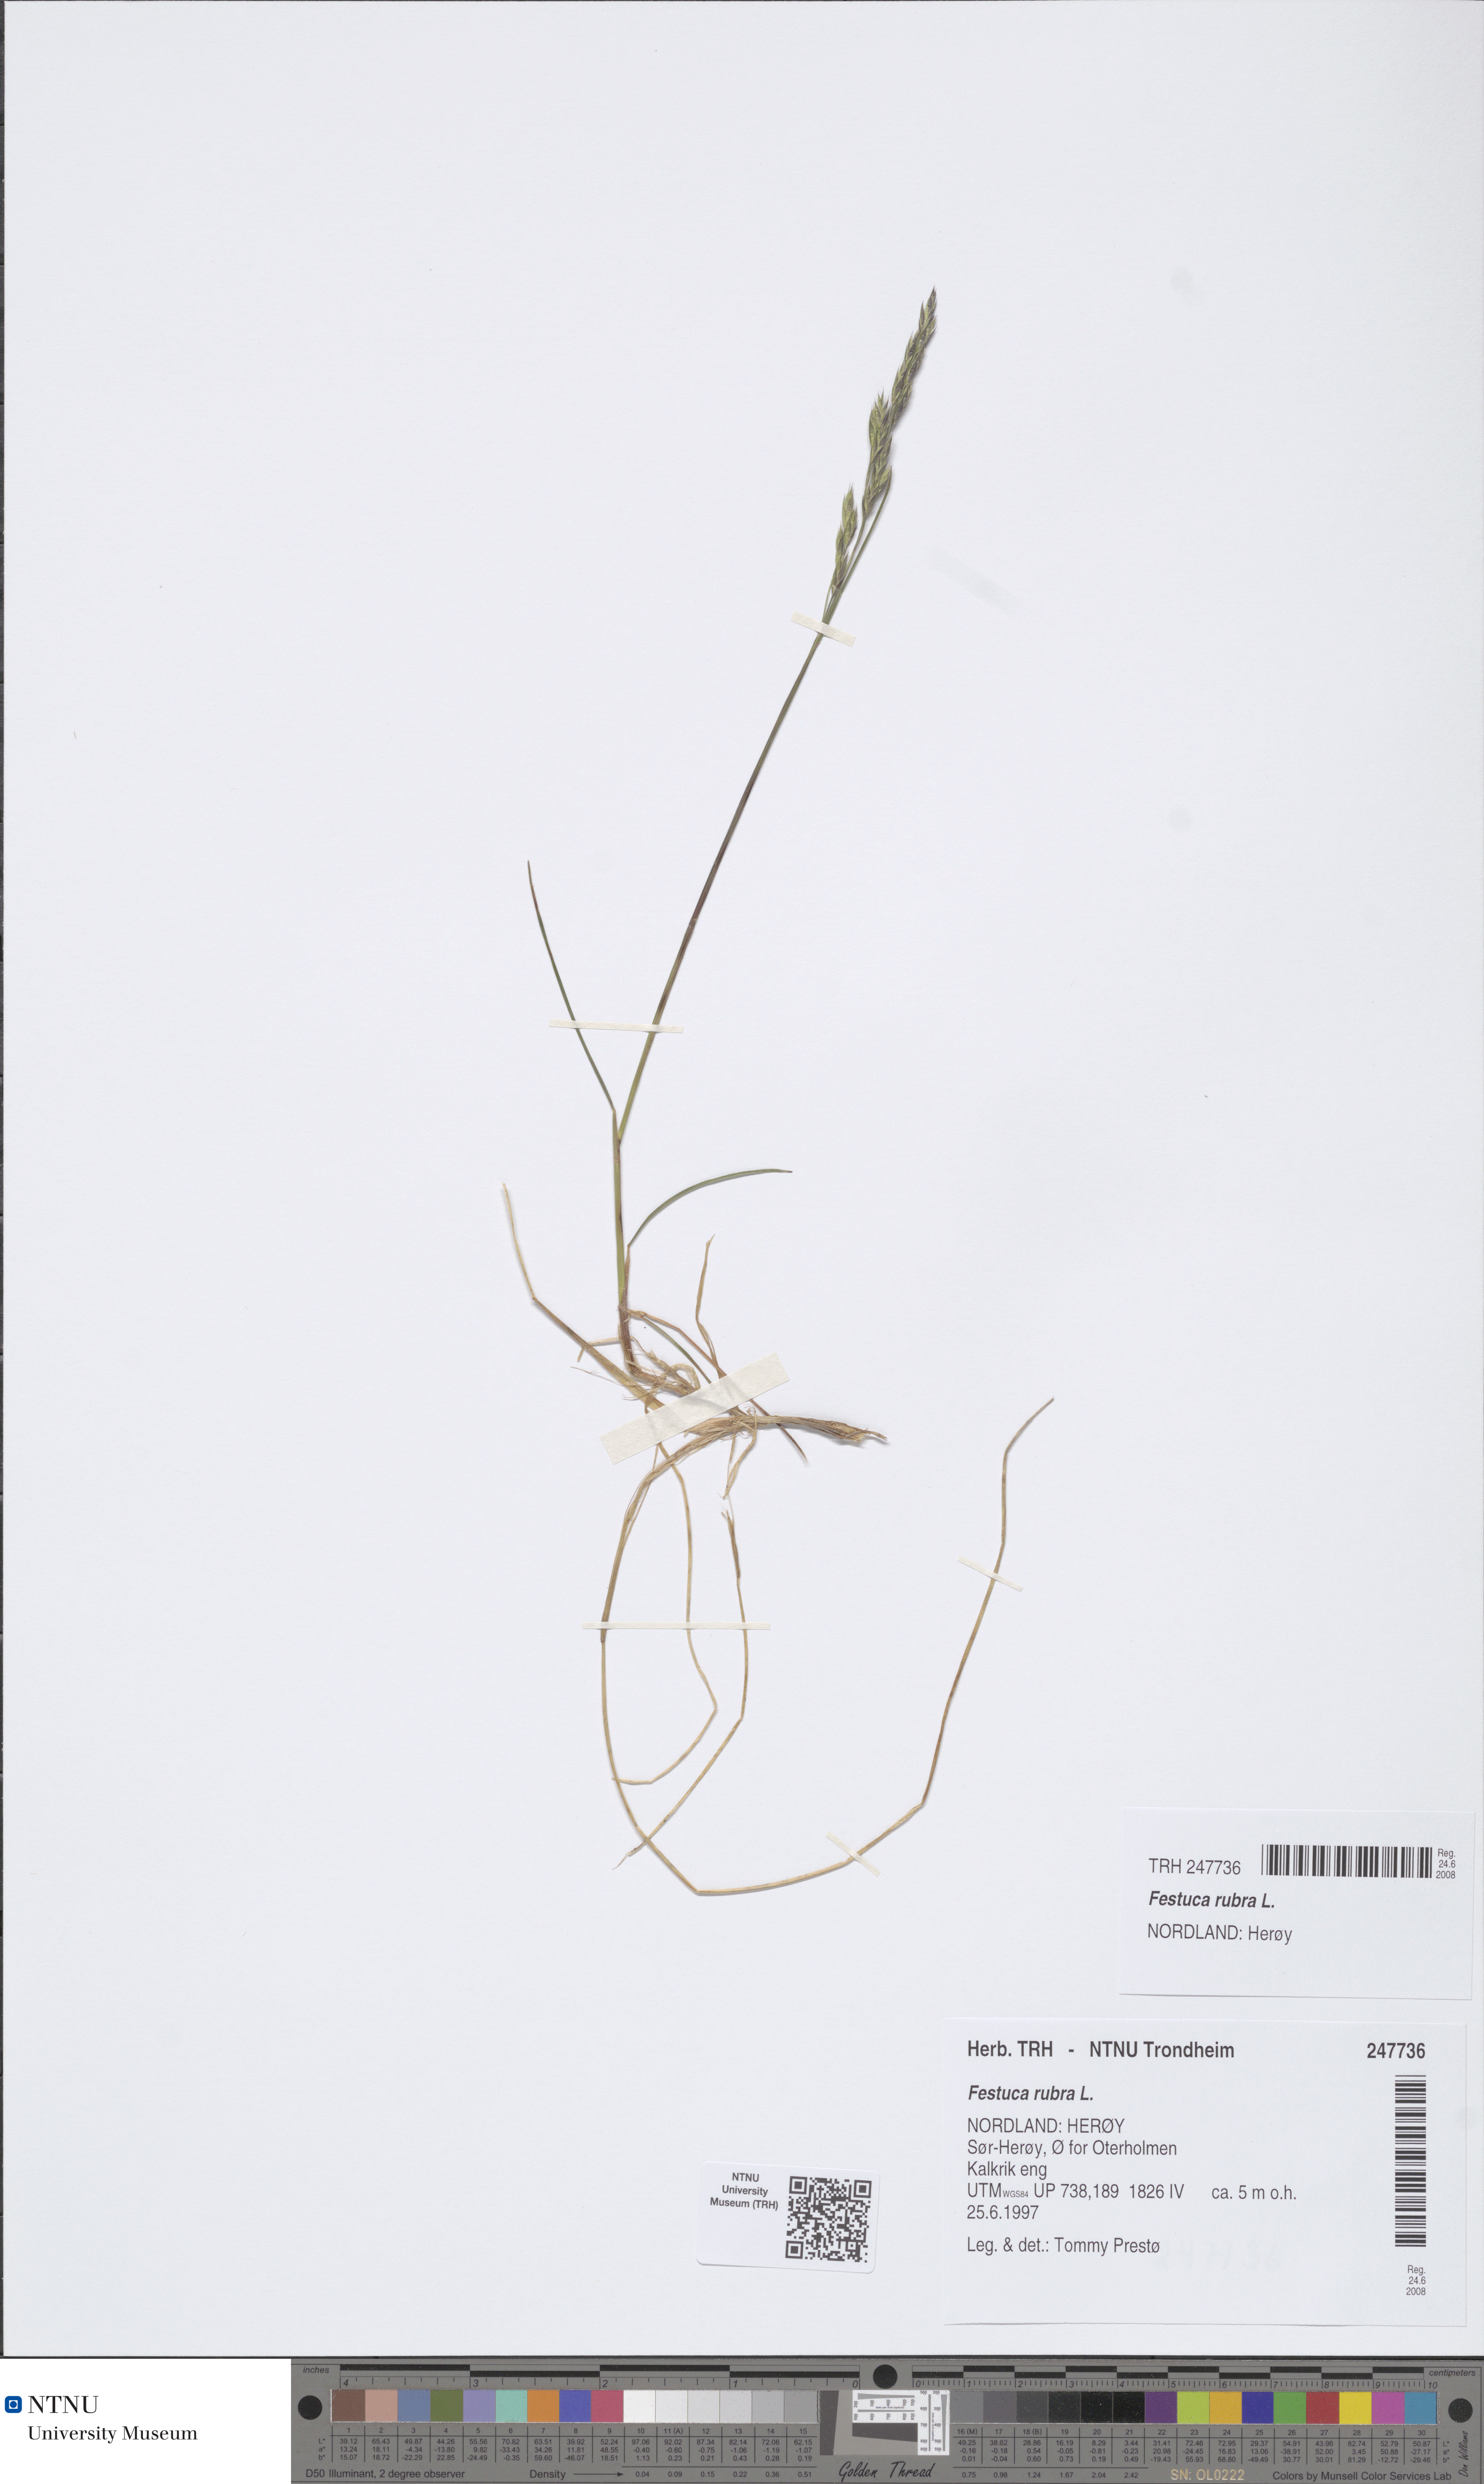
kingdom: Plantae
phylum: Tracheophyta
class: Liliopsida
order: Poales
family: Poaceae
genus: Festuca
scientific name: Festuca rubra
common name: Red fescue
